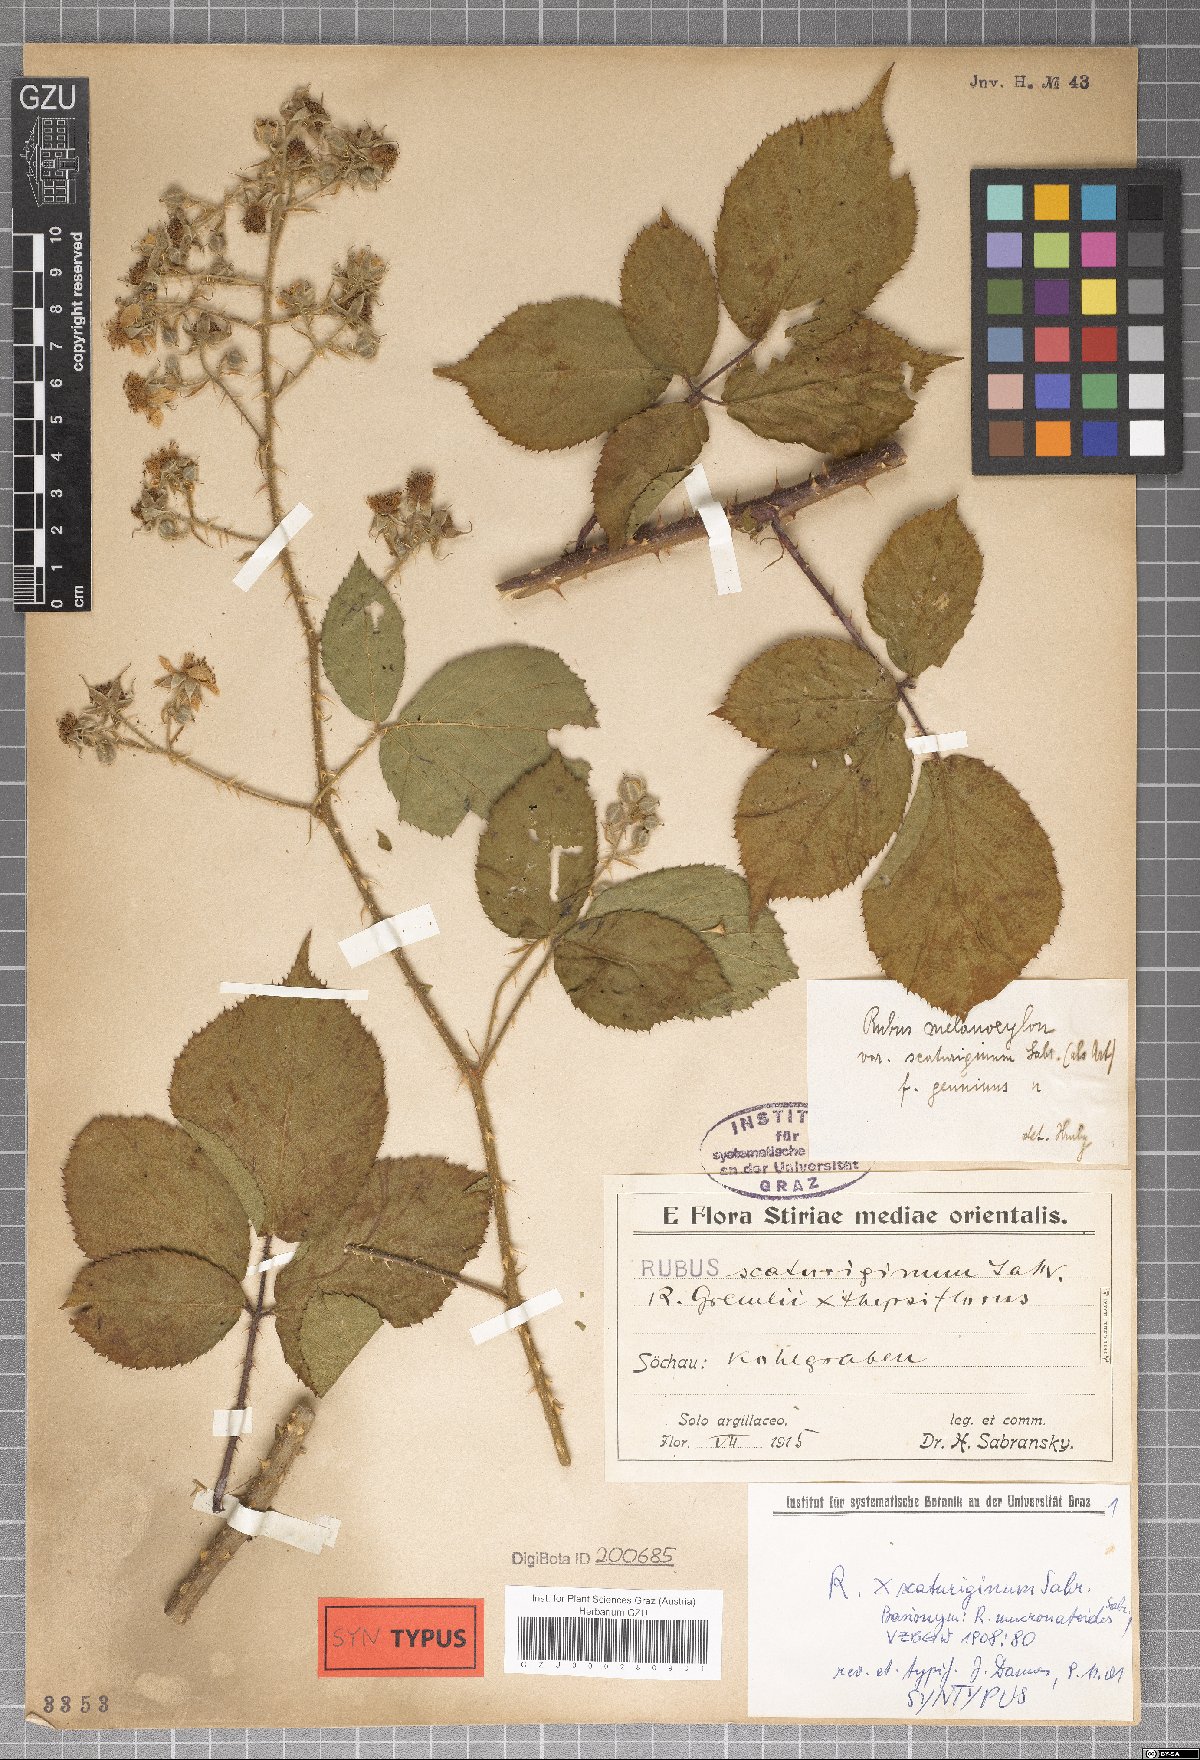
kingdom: Plantae
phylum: Tracheophyta
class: Magnoliopsida
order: Rosales
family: Rosaceae
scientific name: Rosaceae
